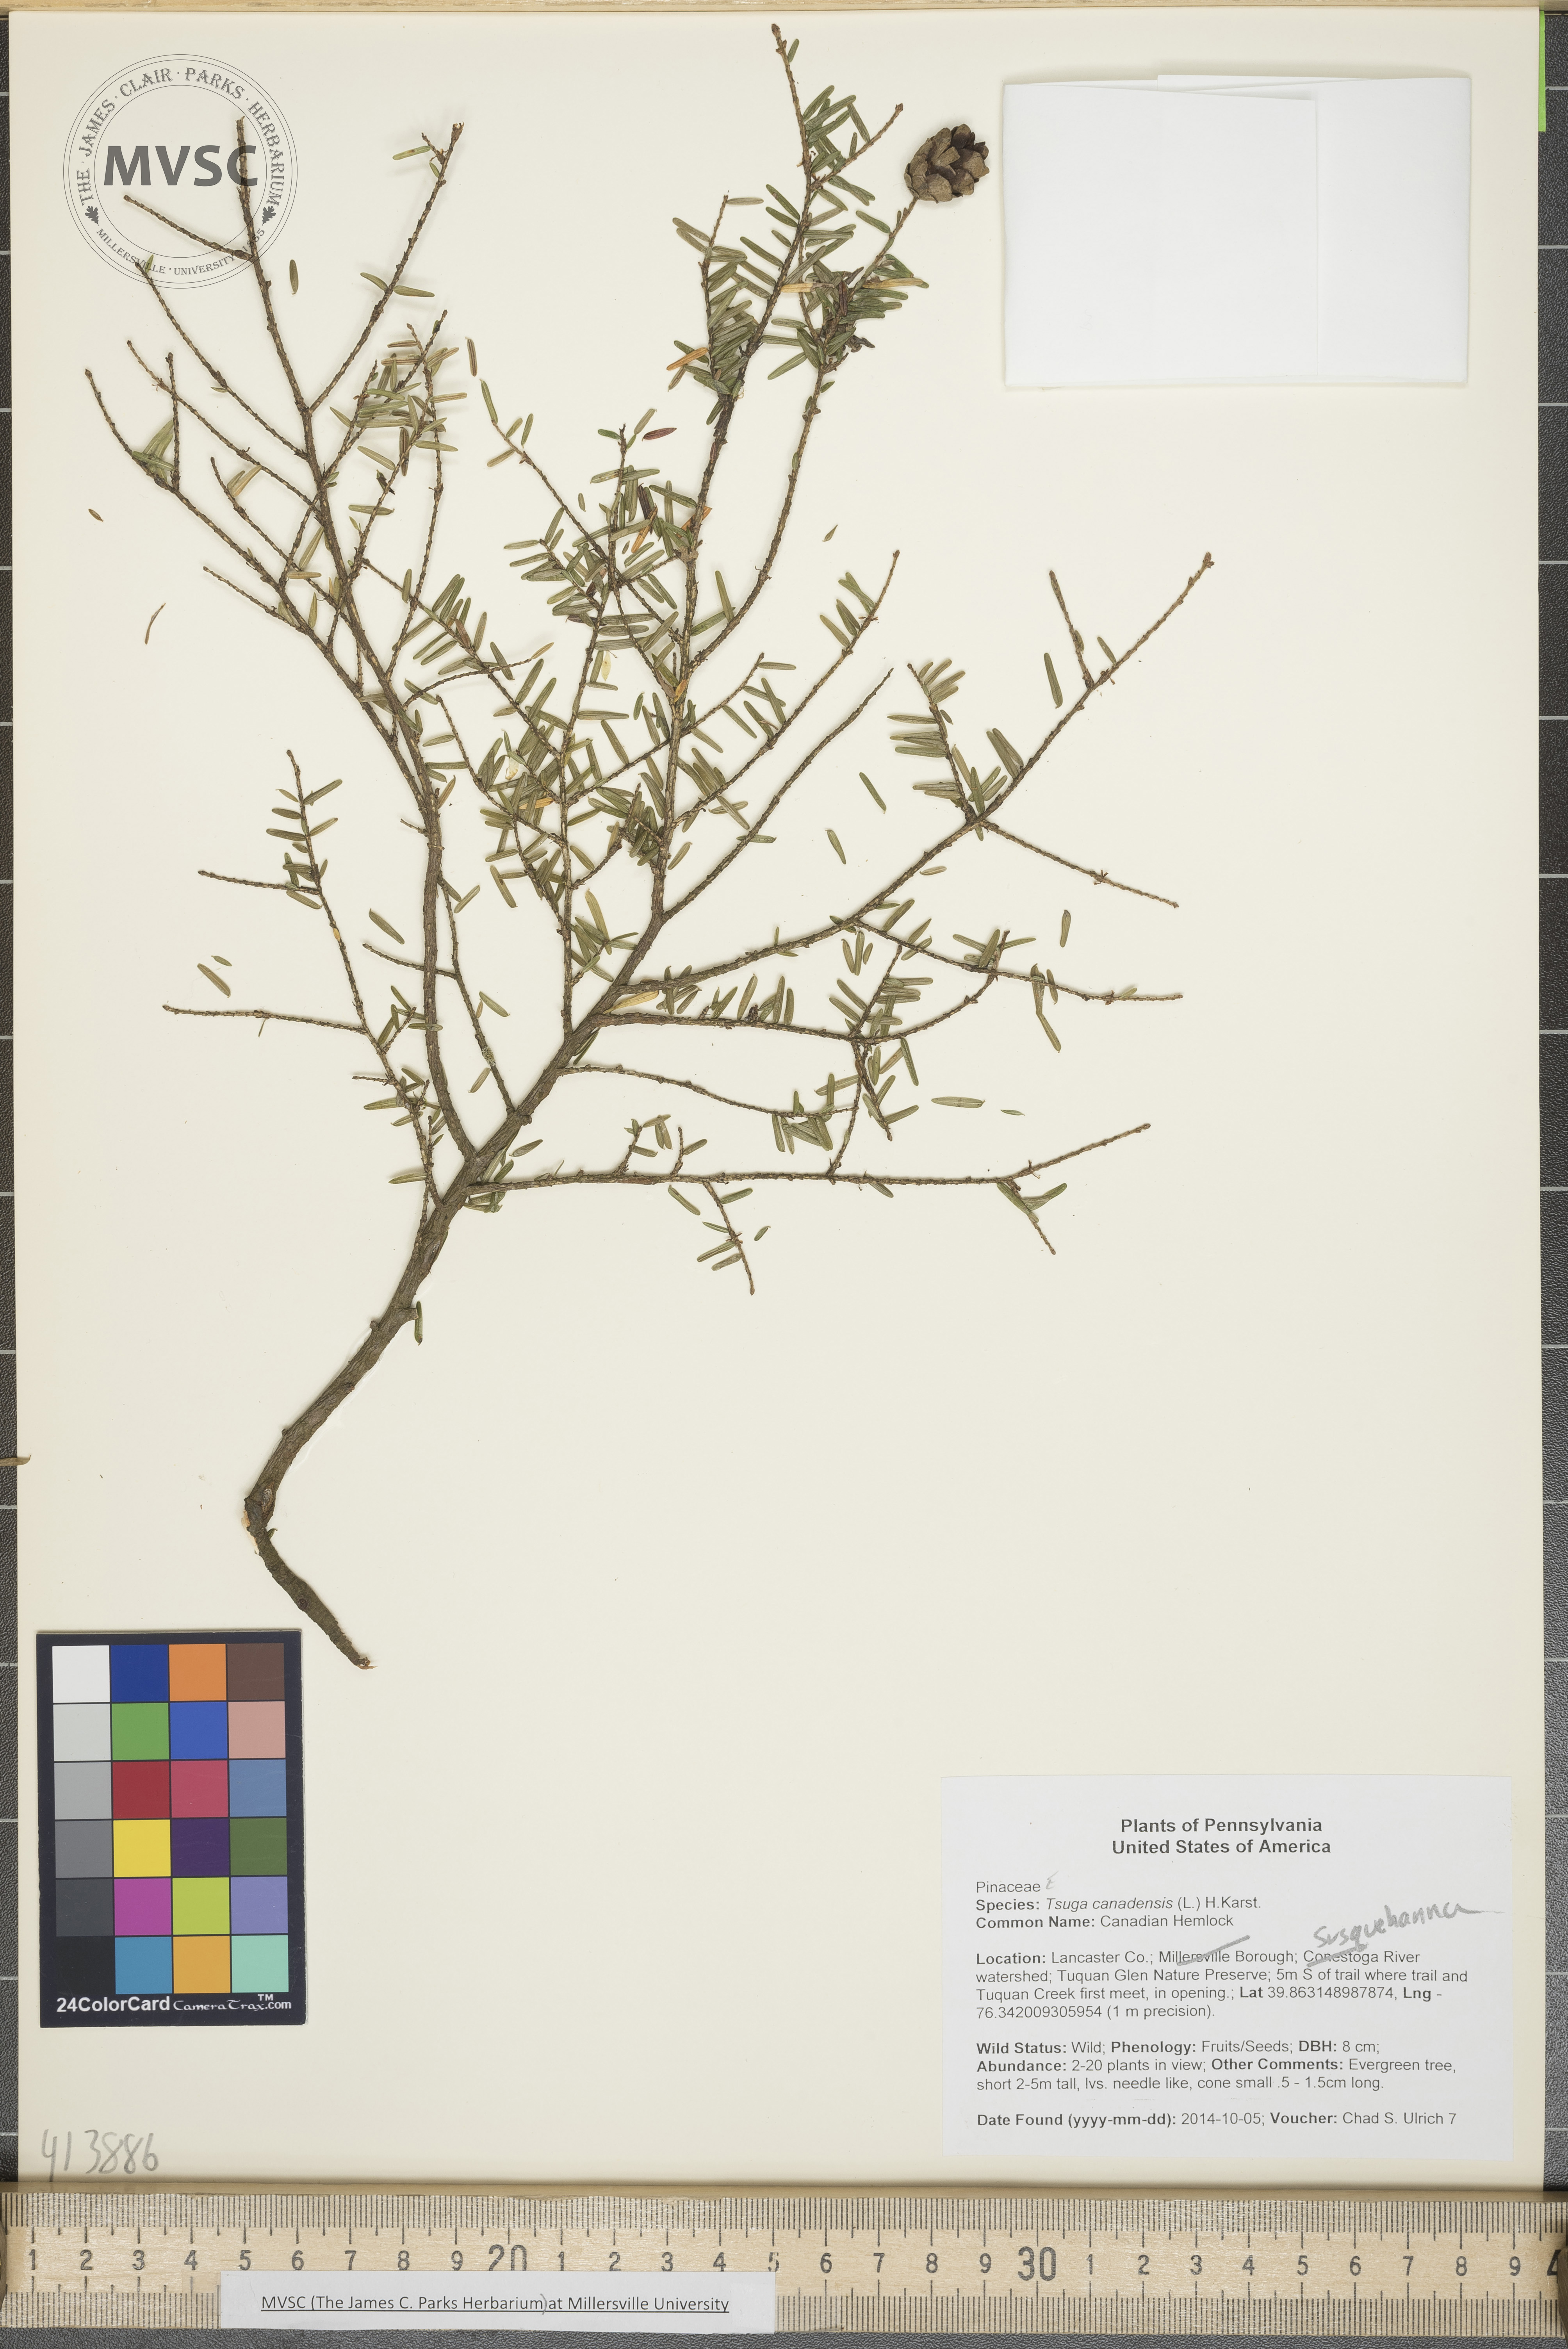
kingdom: Plantae
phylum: Tracheophyta
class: Pinopsida
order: Pinales
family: Pinaceae
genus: Tsuga
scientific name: Tsuga canadensis
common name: Canadian Hemlock
